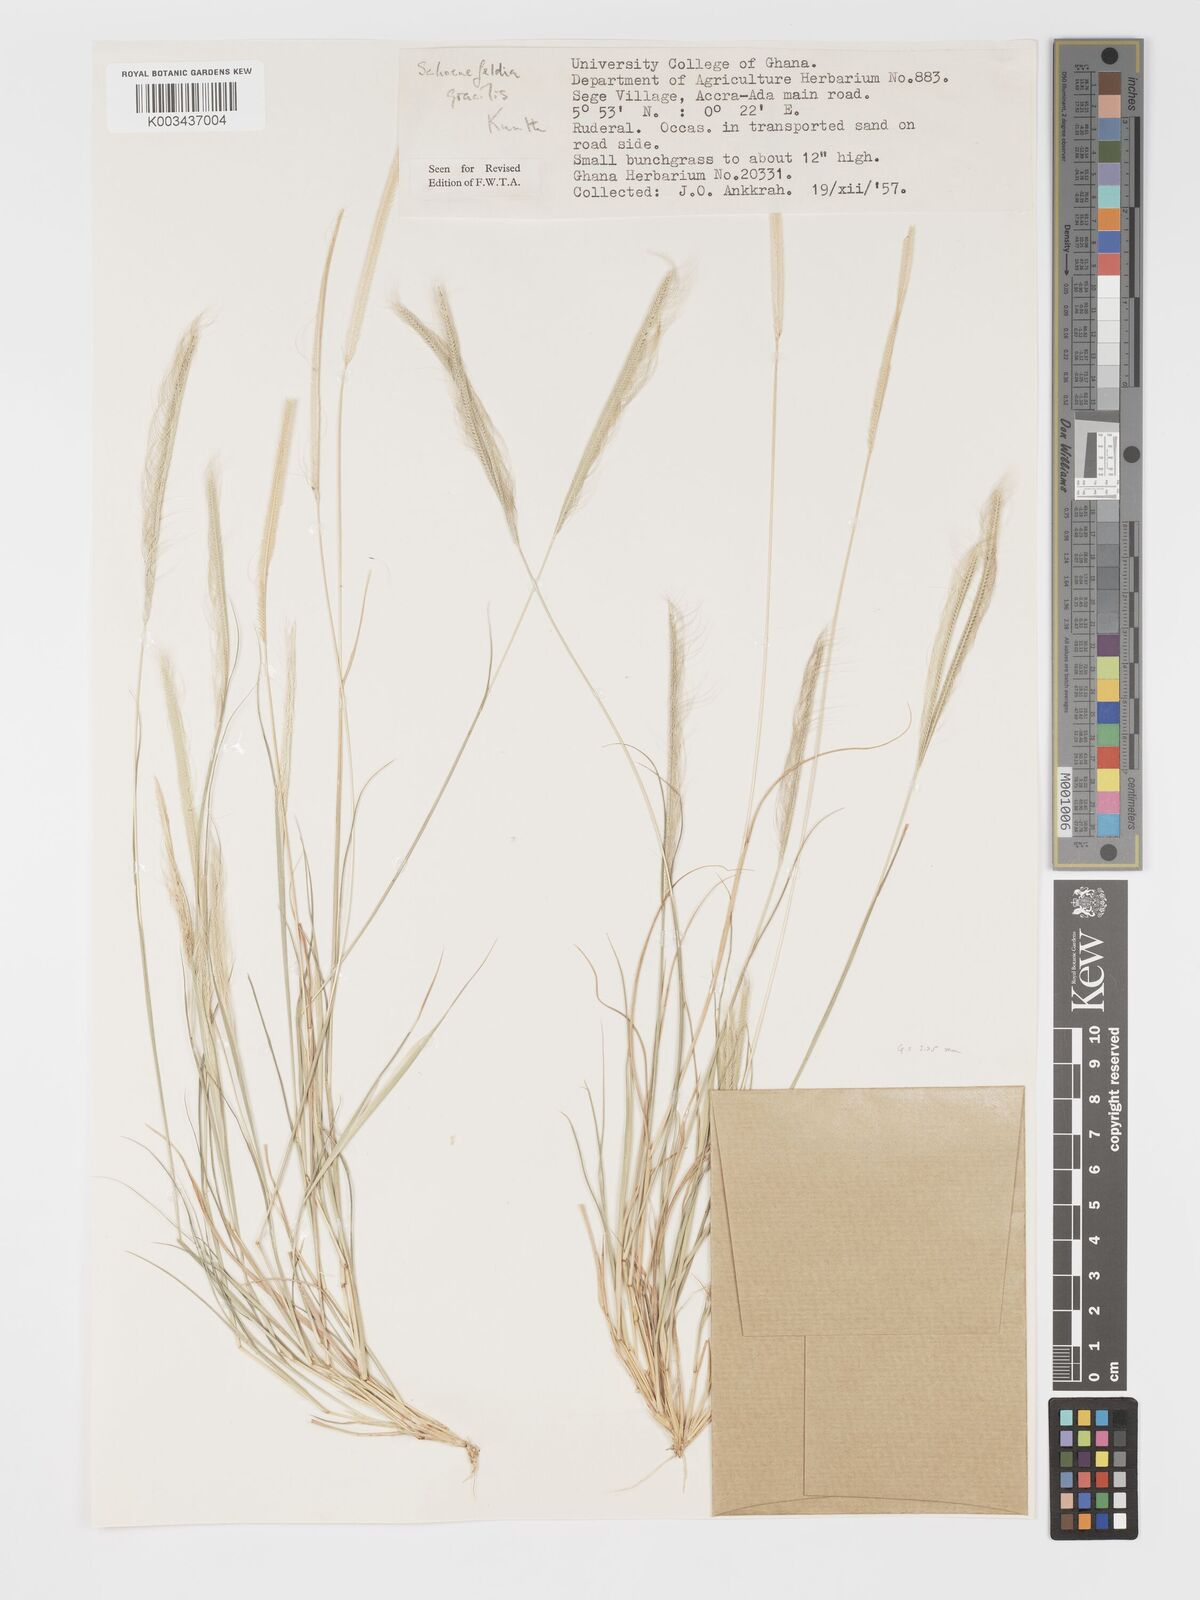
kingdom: Plantae
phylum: Tracheophyta
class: Liliopsida
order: Poales
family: Poaceae
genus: Schoenefeldia
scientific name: Schoenefeldia gracilis
